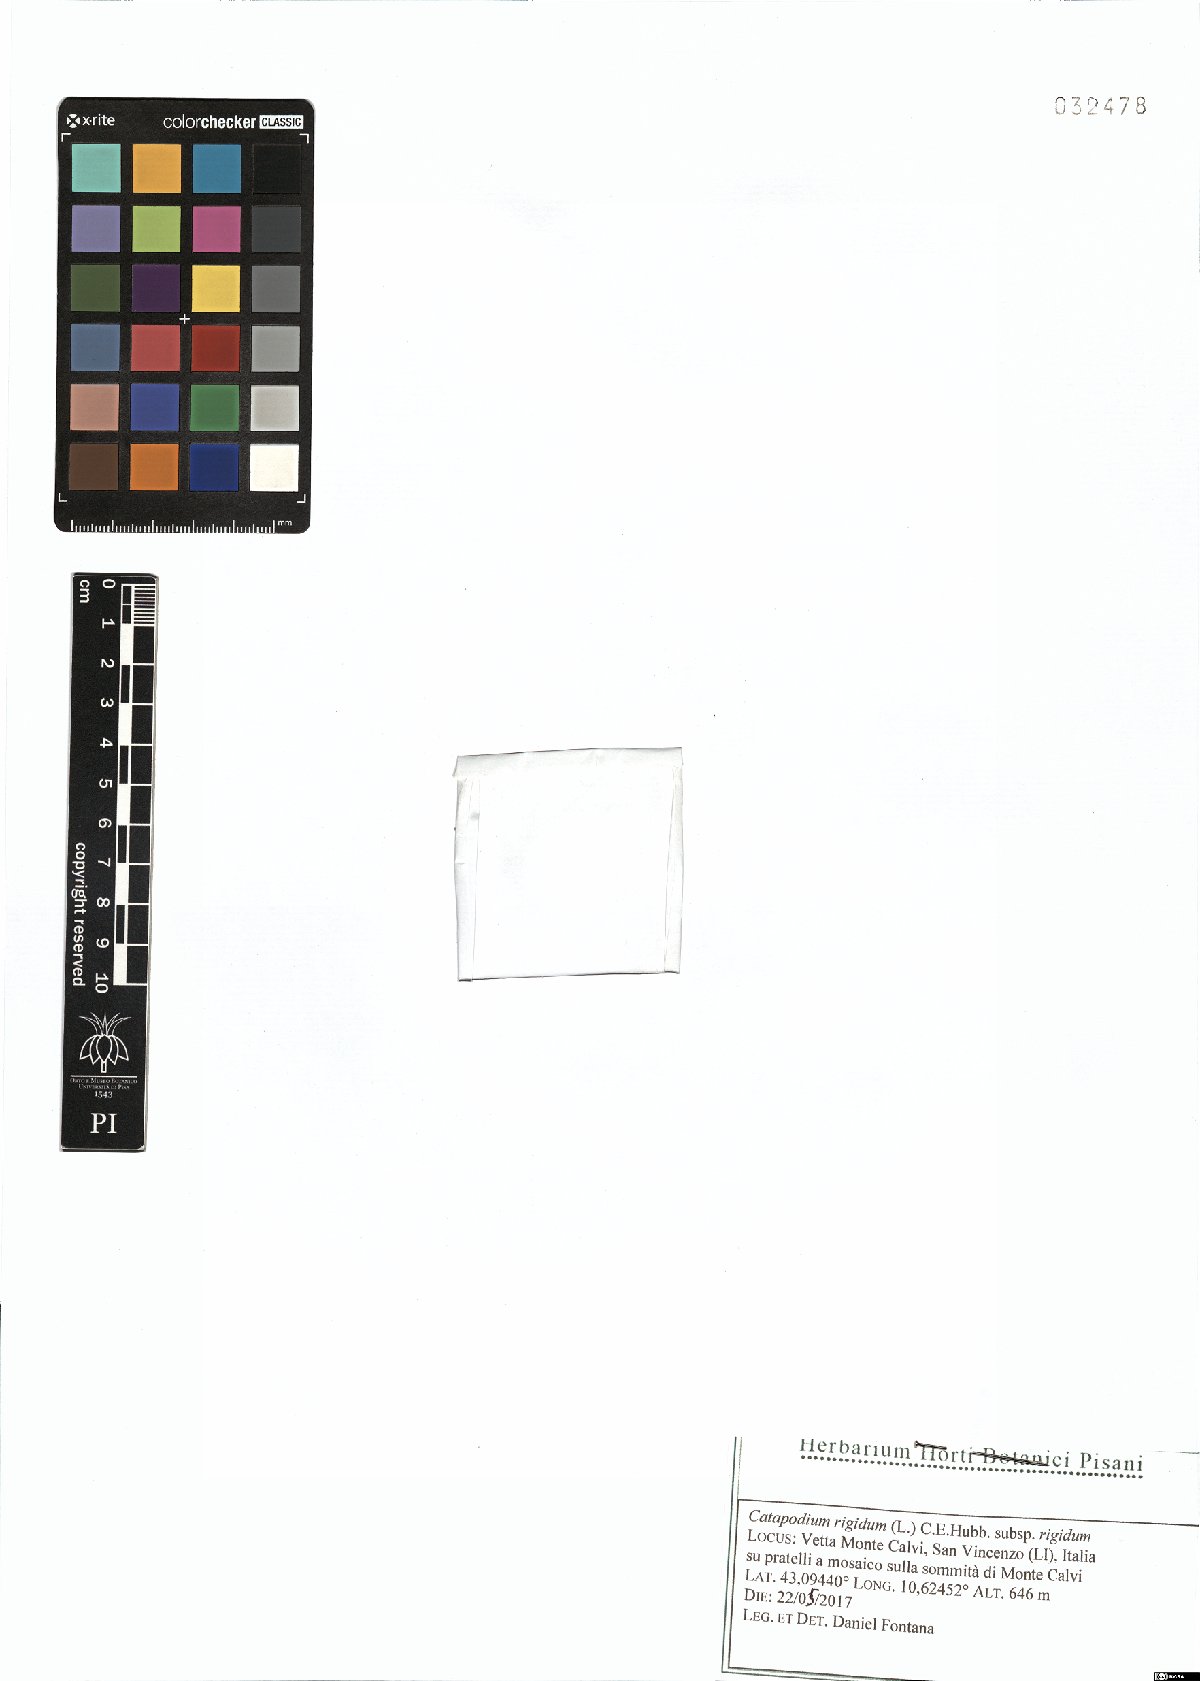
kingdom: Plantae
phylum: Tracheophyta
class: Liliopsida
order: Poales
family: Poaceae
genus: Catapodium
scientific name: Catapodium rigidum
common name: Fern-grass
